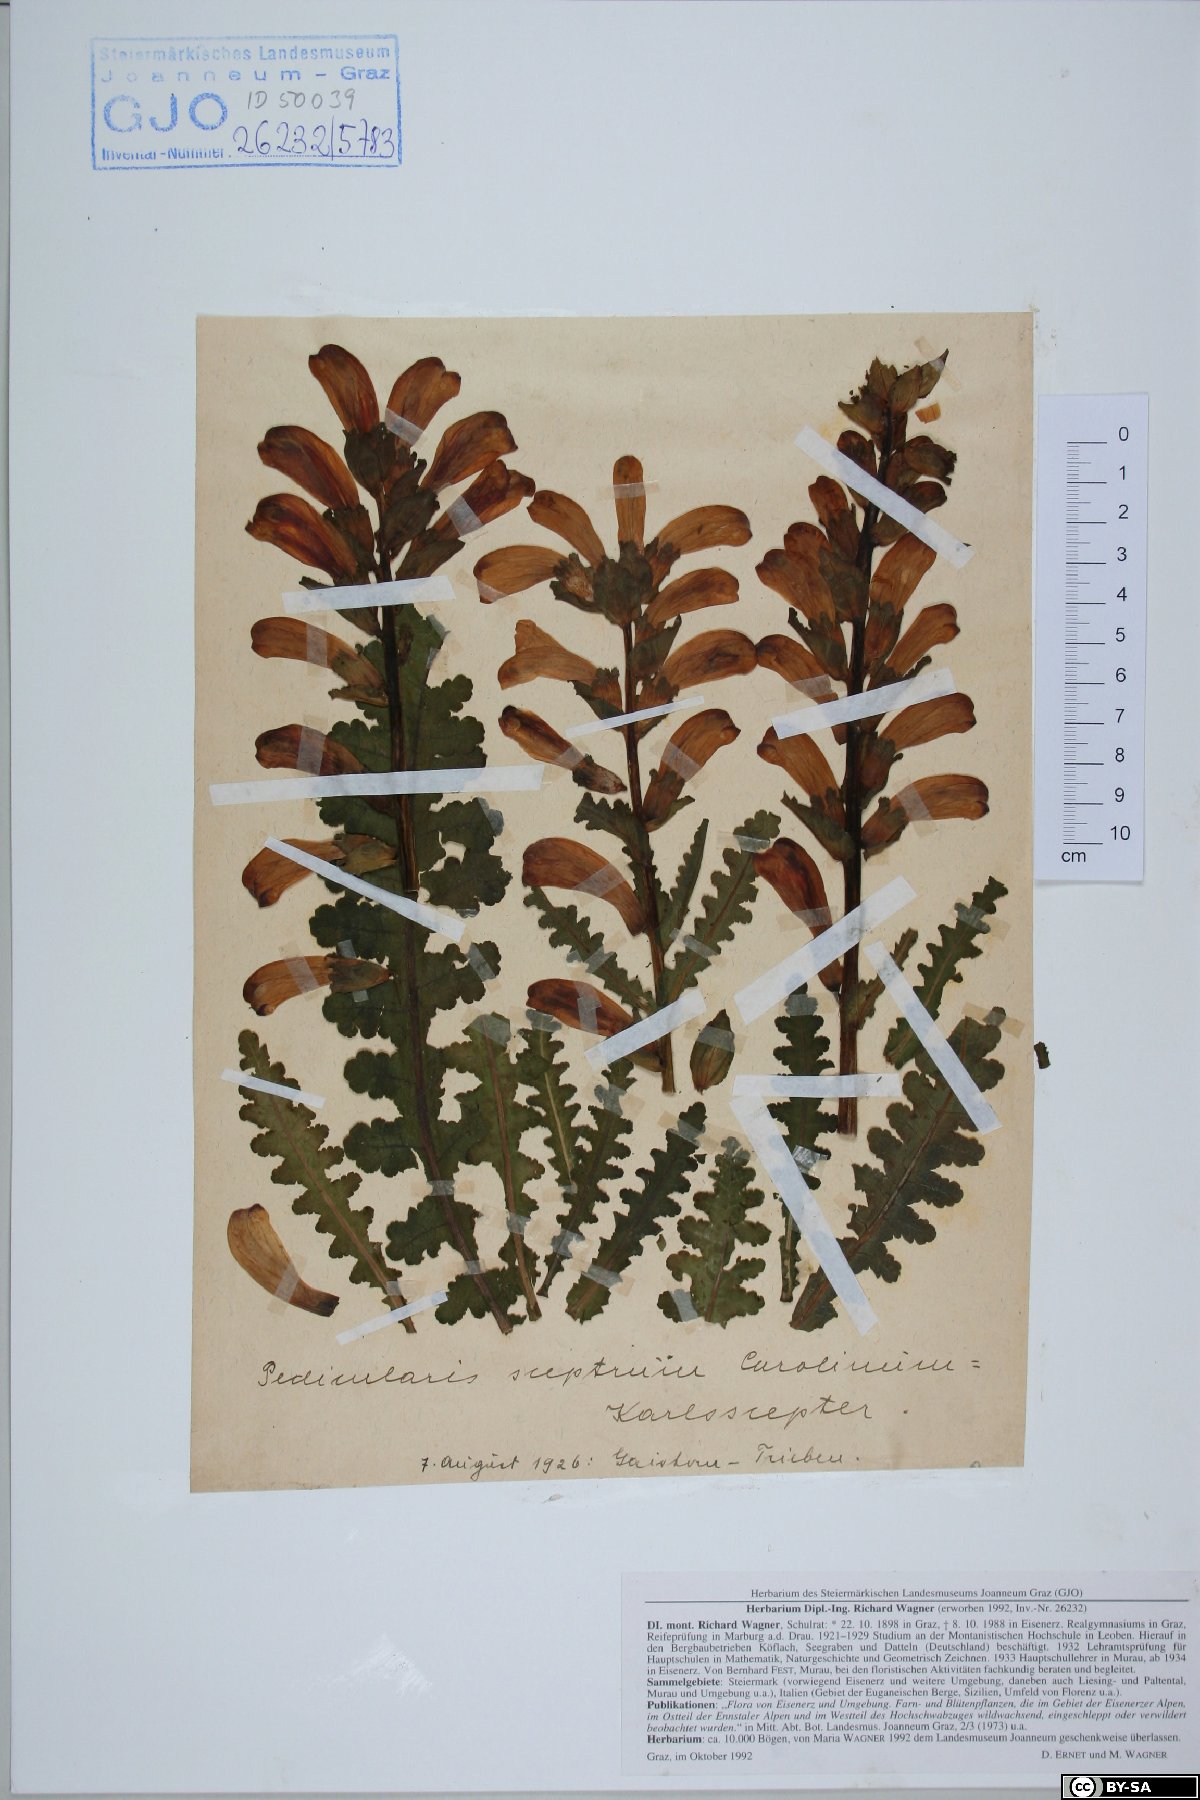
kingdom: Plantae
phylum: Tracheophyta
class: Magnoliopsida
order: Lamiales
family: Orobanchaceae
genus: Pedicularis
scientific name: Pedicularis sceptrum-carolinum
